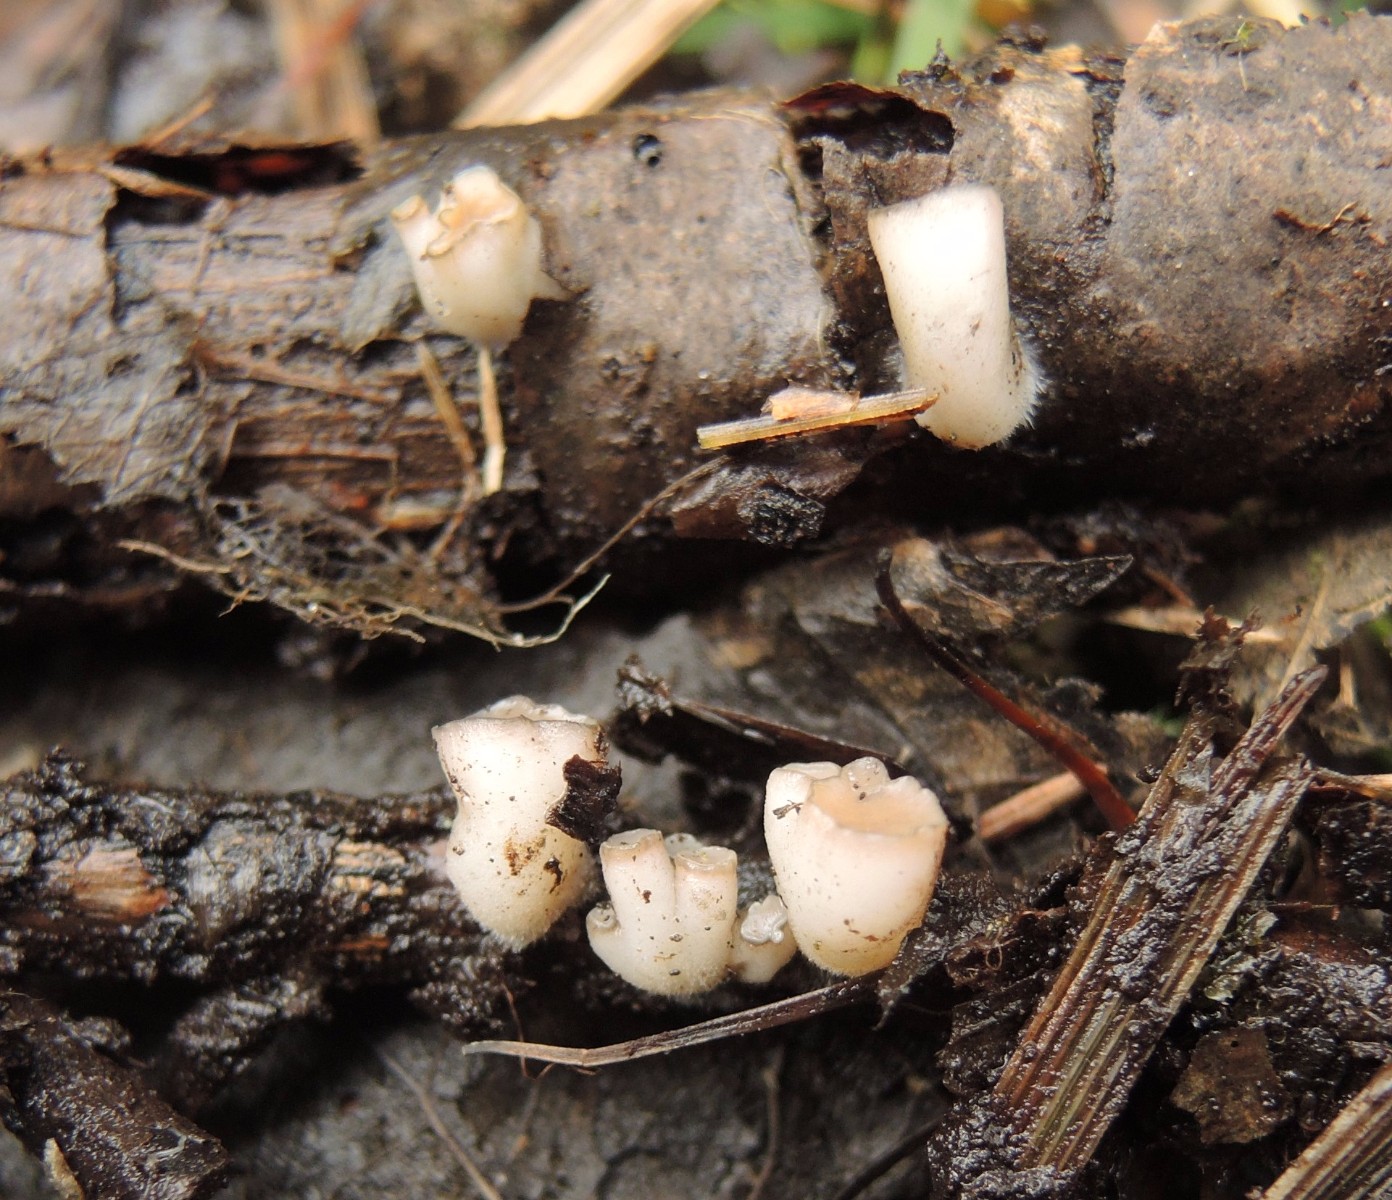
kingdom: Fungi
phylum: Ascomycota
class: Leotiomycetes
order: Helotiales
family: Tricladiaceae
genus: Cudoniella
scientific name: Cudoniella tenuispora
